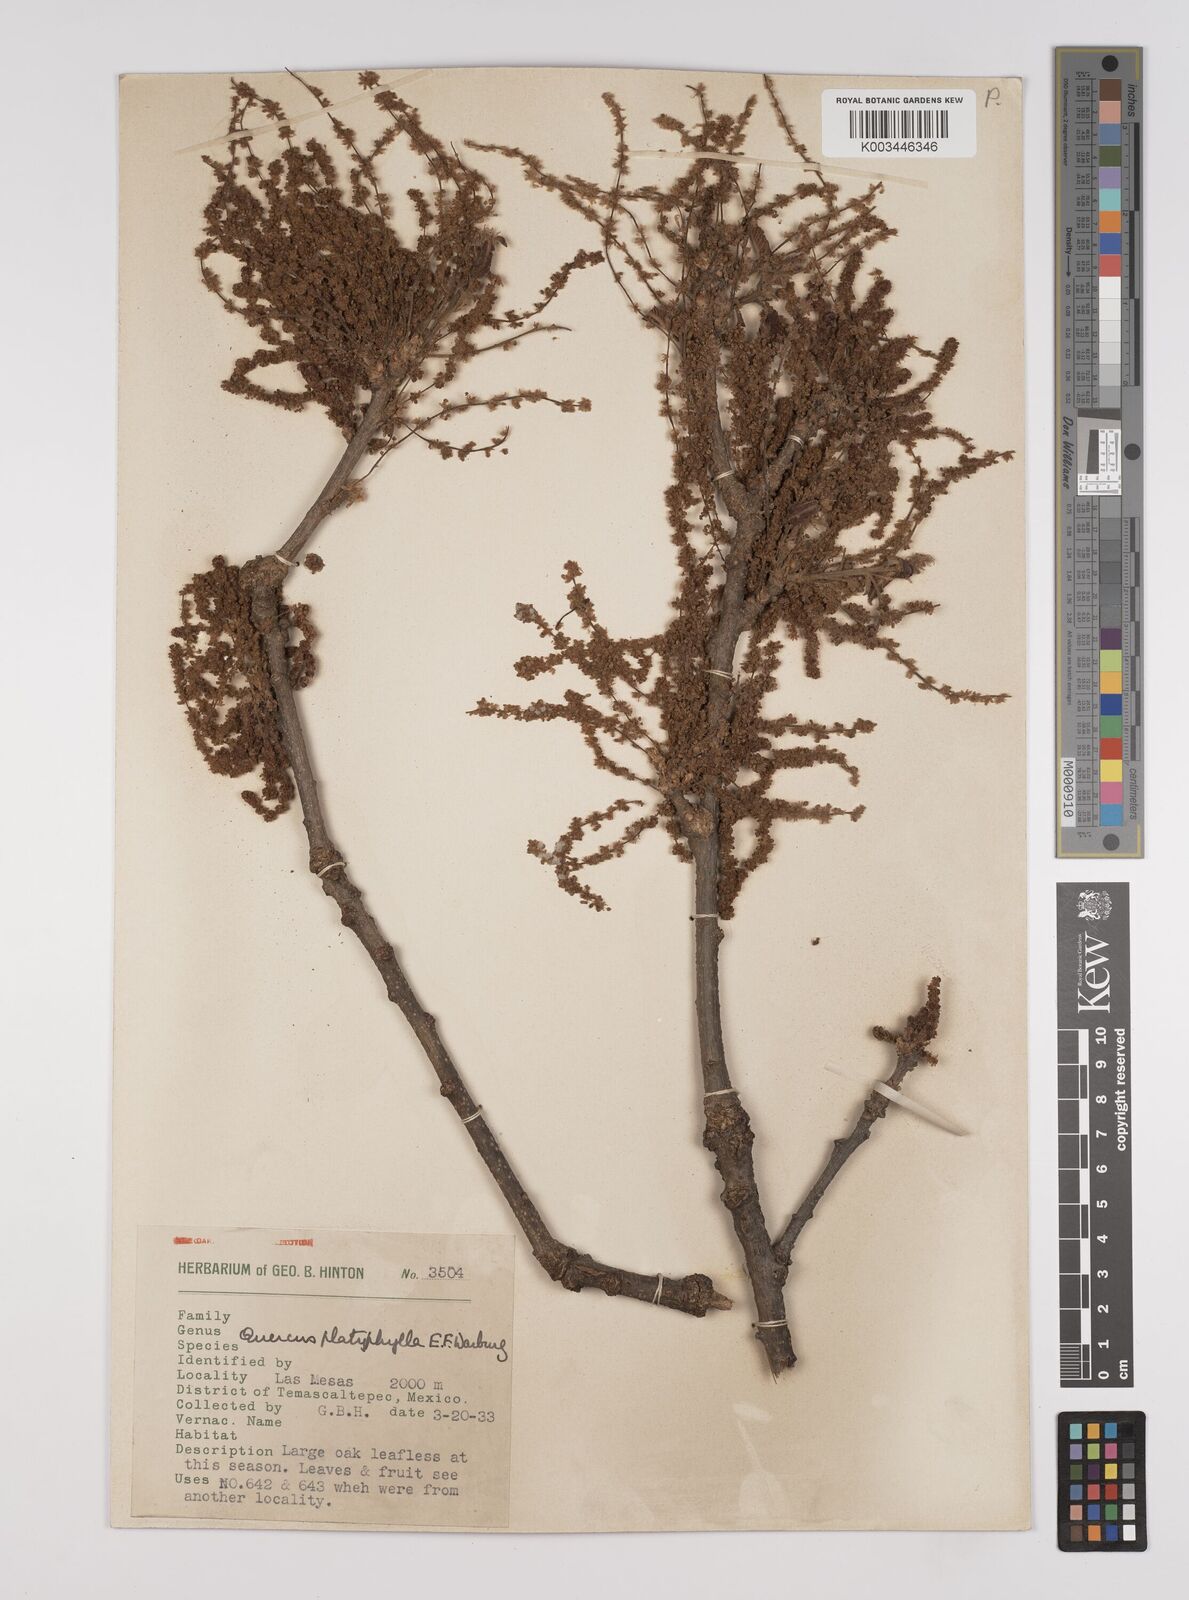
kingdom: Plantae
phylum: Tracheophyta
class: Magnoliopsida
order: Fagales
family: Fagaceae
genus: Quercus
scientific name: Quercus
